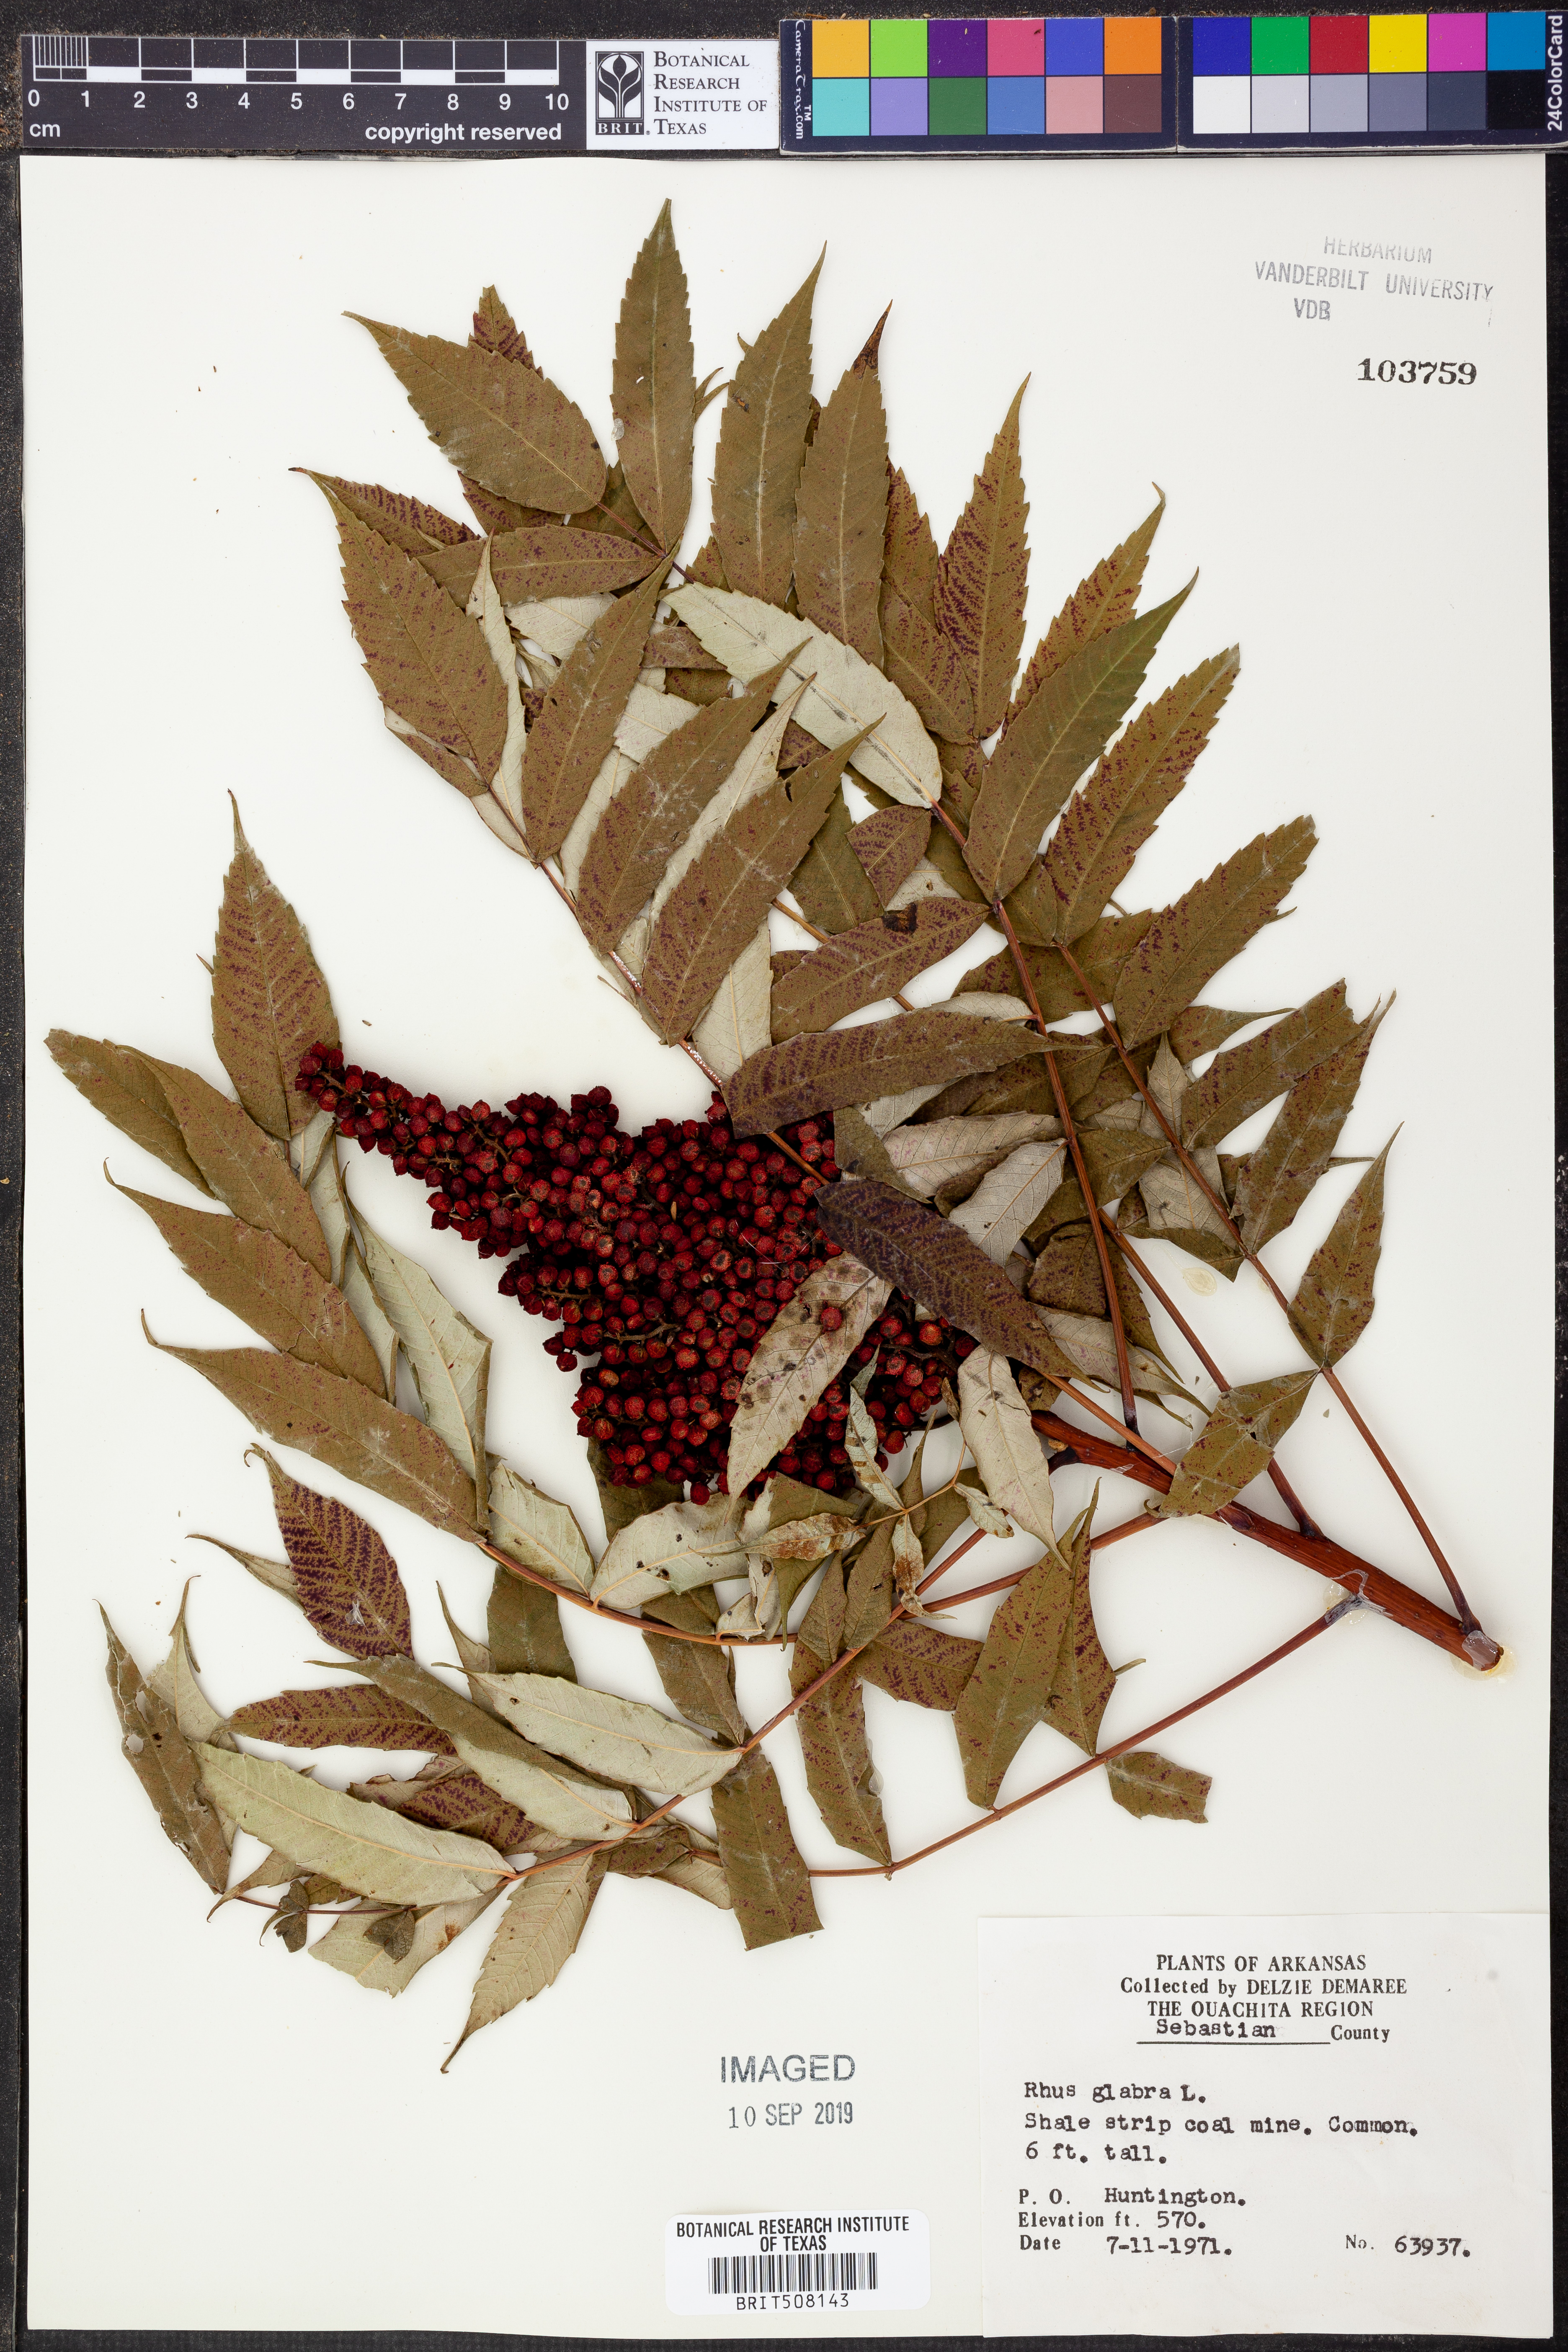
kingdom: Plantae
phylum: Tracheophyta
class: Magnoliopsida
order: Sapindales
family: Anacardiaceae
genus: Rhus
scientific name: Rhus glabra
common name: Scarlet sumac
